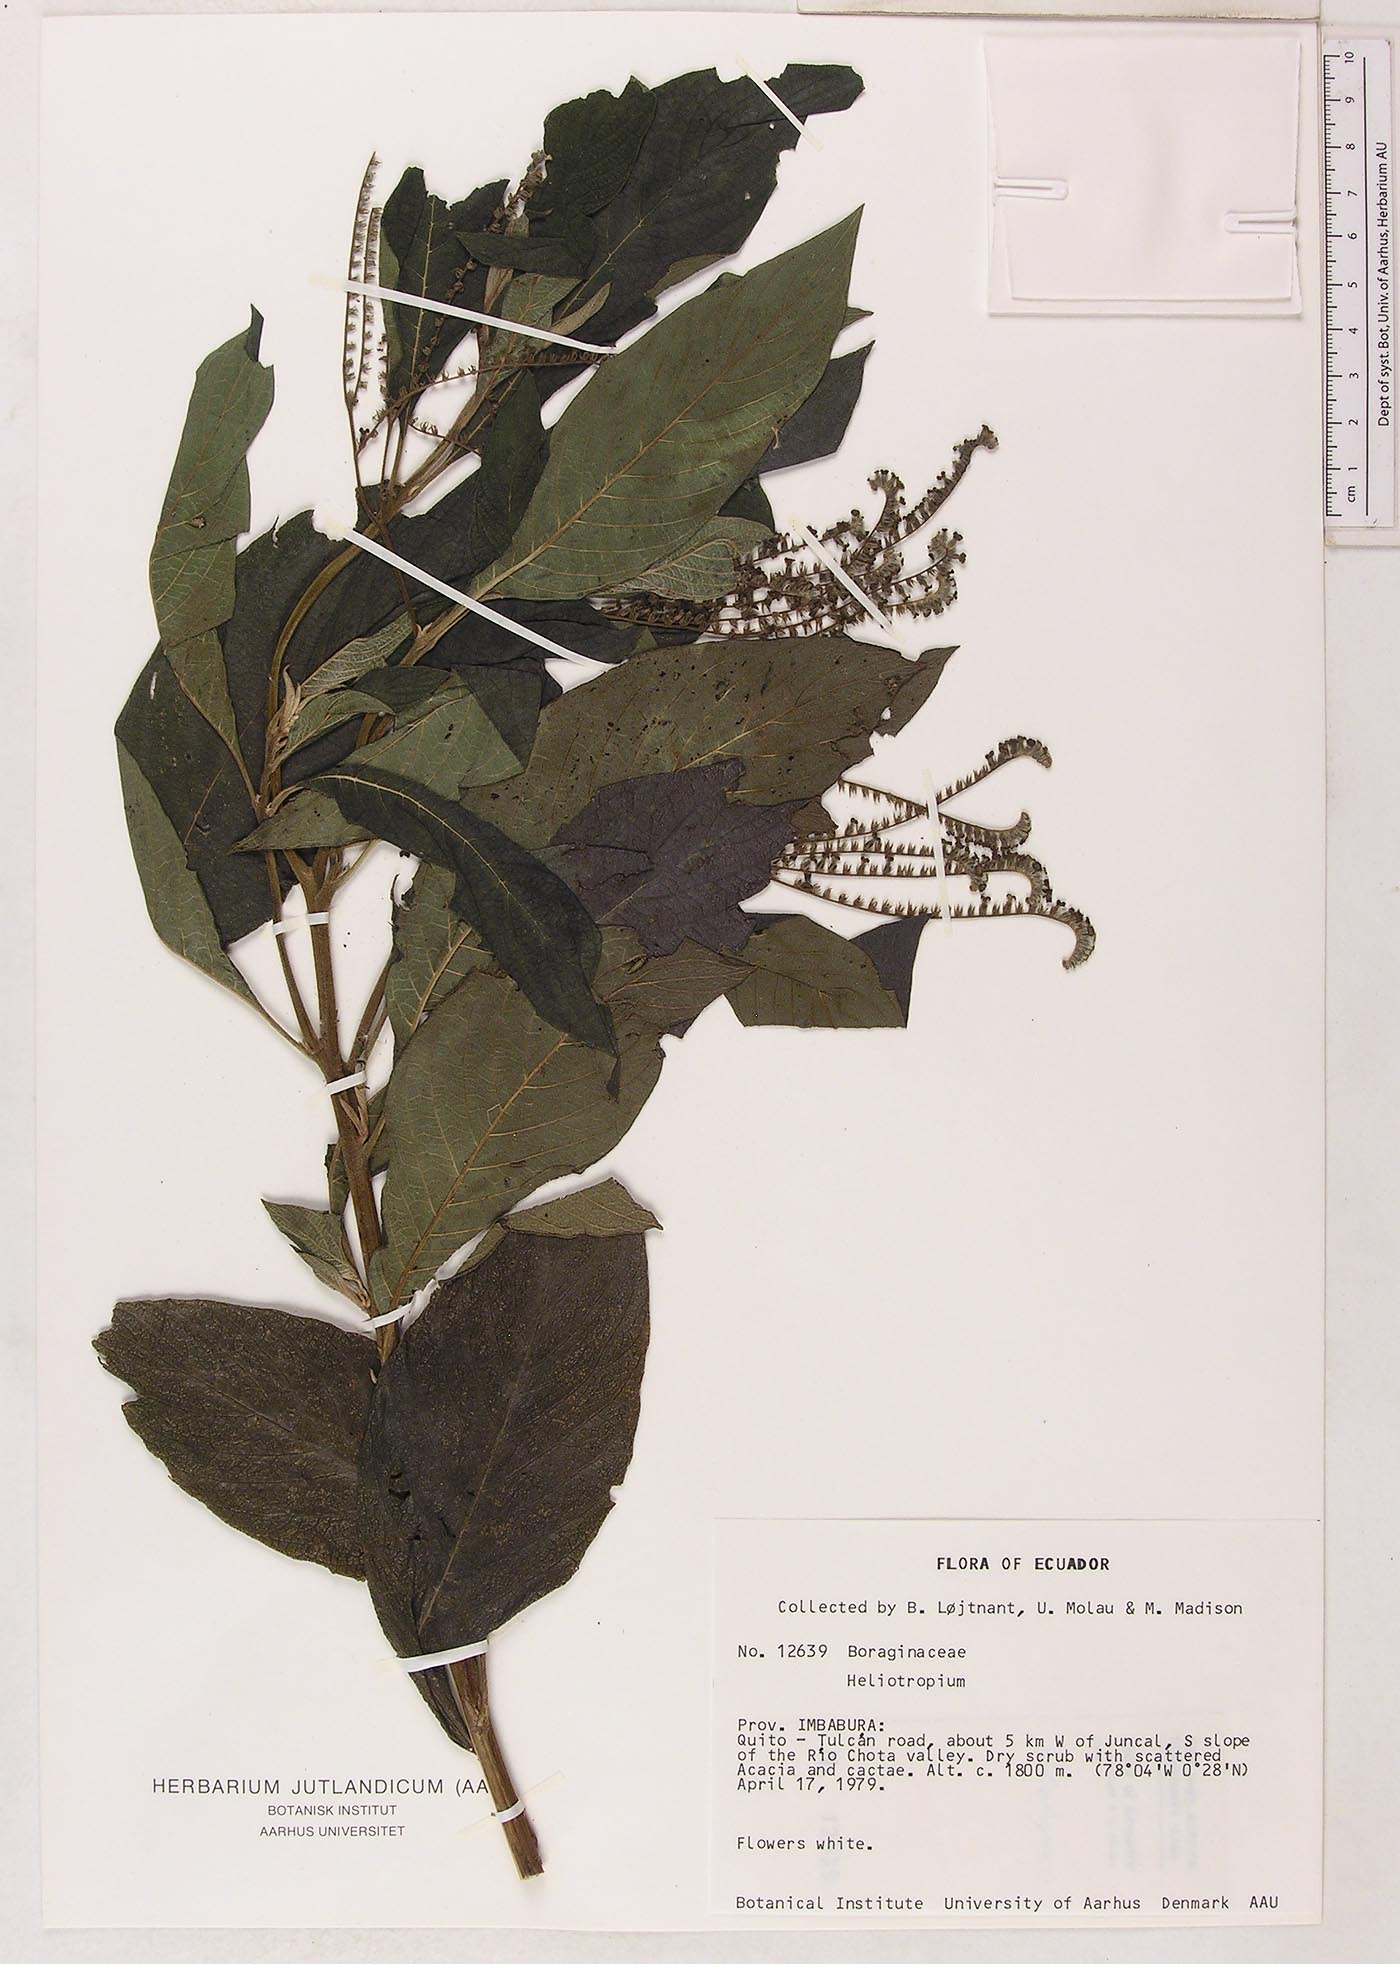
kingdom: Plantae
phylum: Tracheophyta
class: Magnoliopsida
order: Boraginales
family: Heliotropiaceae
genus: Heliotropium
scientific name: Heliotropium
